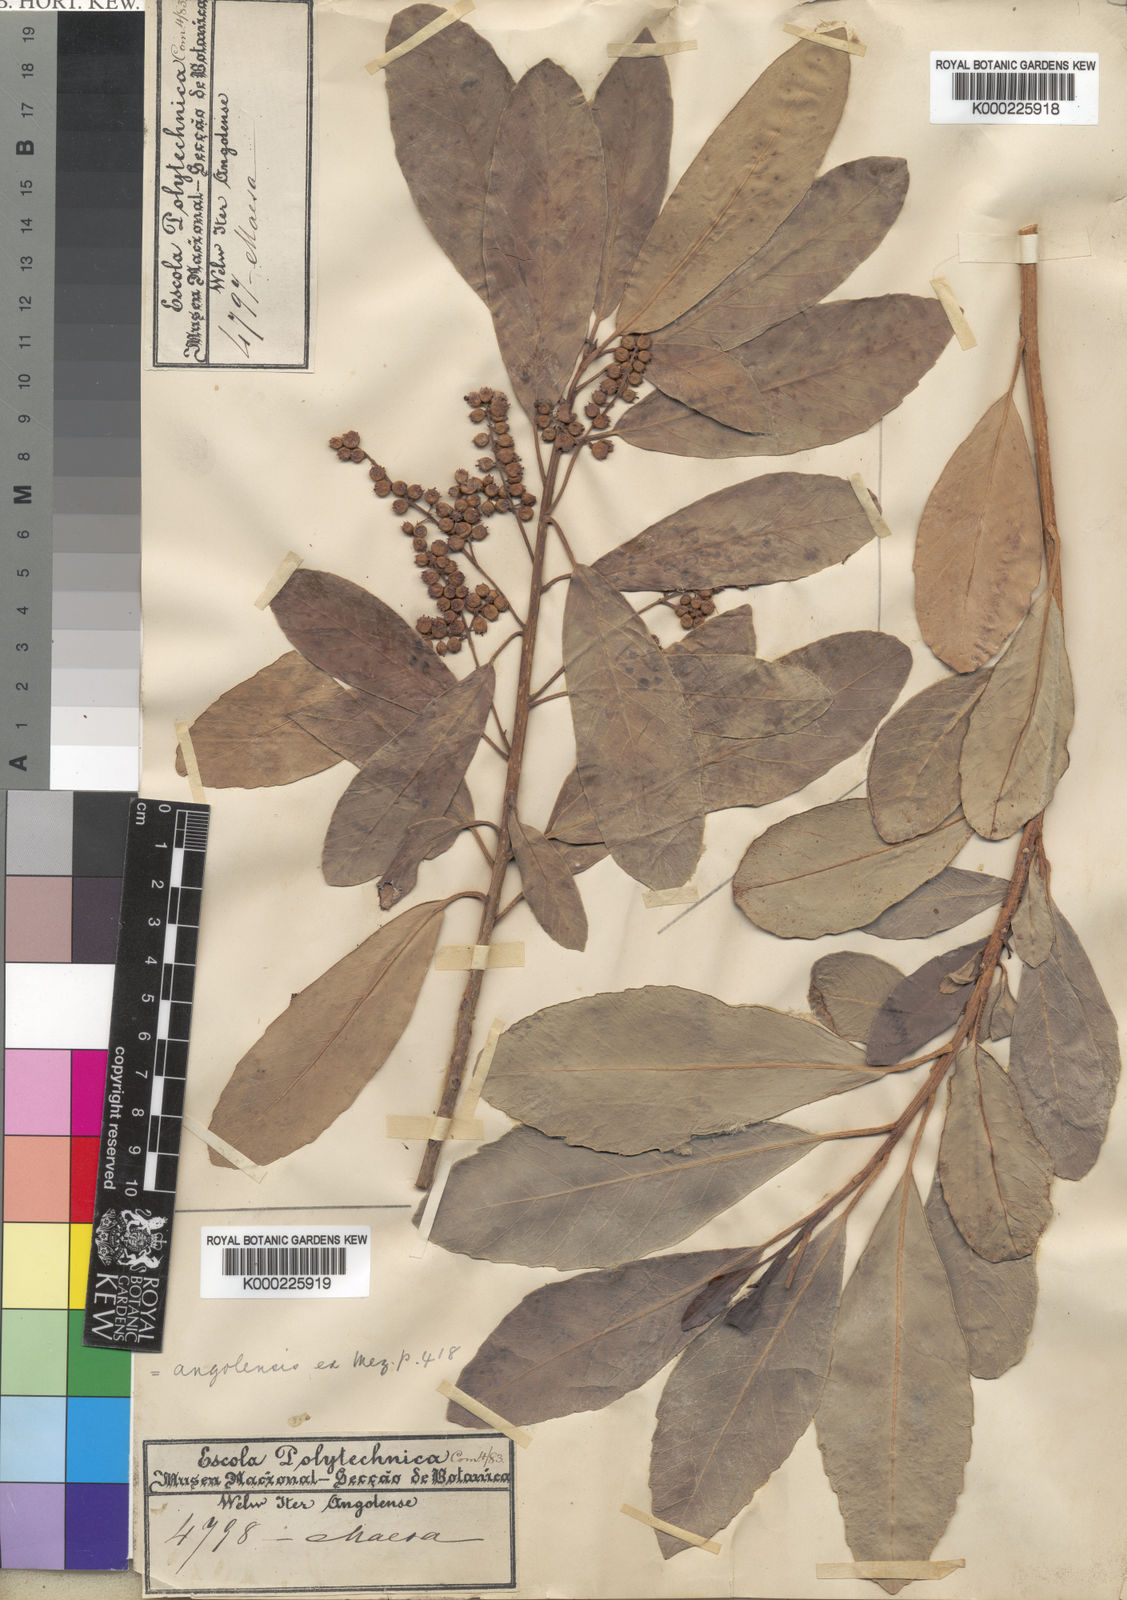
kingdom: Plantae
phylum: Tracheophyta
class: Magnoliopsida
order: Ericales
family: Primulaceae
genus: Maesa
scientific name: Maesa lanceolata
